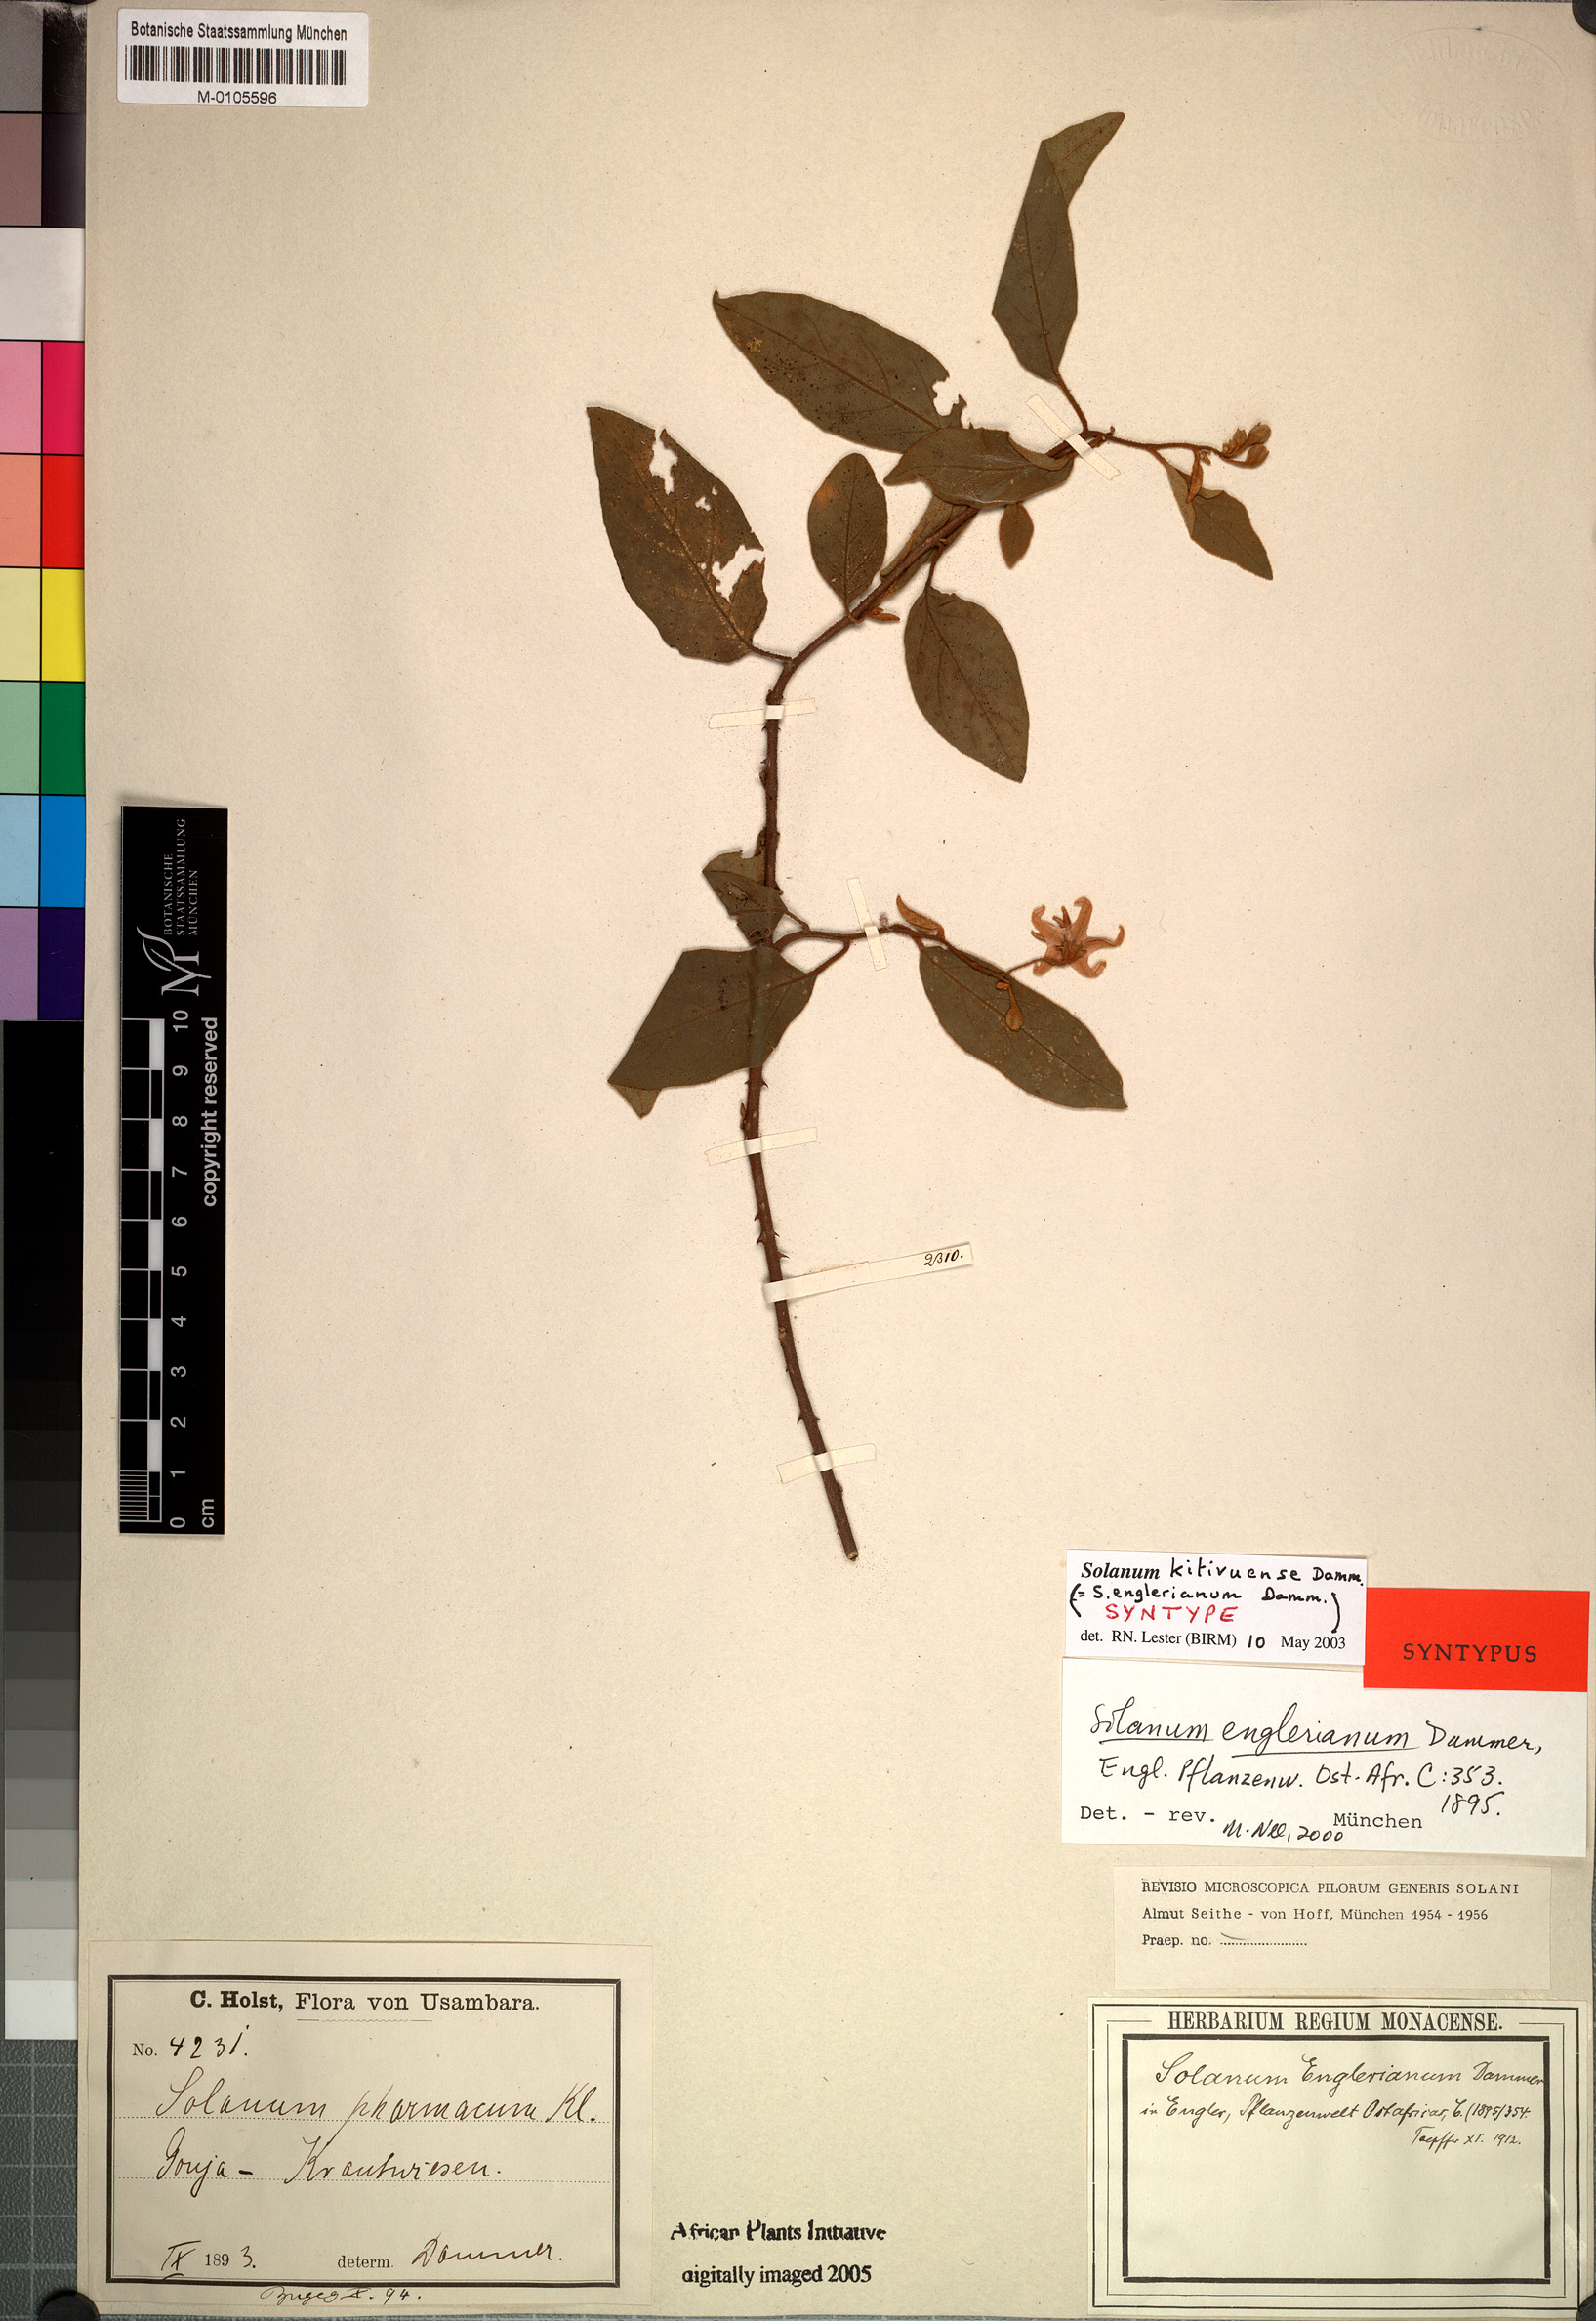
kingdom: Plantae
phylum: Tracheophyta
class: Magnoliopsida
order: Solanales
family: Solanaceae
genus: Solanum
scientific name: Solanum stipitatostellatum
